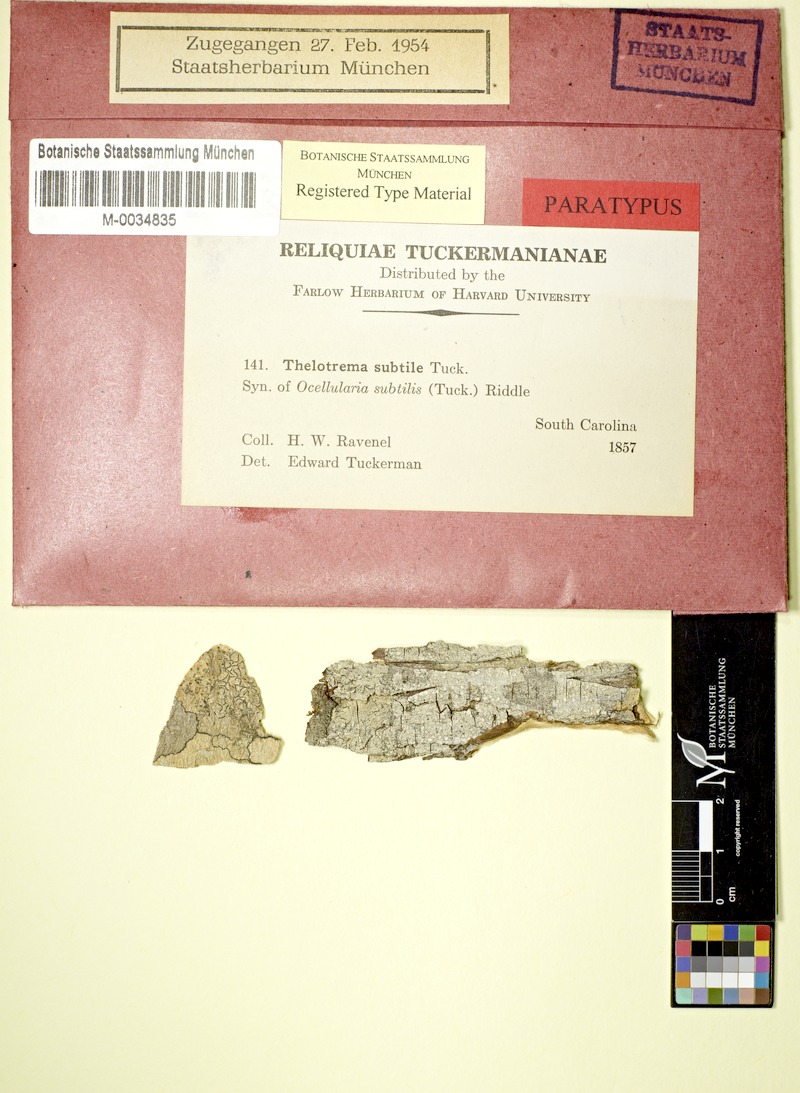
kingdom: Fungi
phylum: Ascomycota
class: Lecanoromycetes
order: Ostropales
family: Graphidaceae
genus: Thelotrema
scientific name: Thelotrema subtile
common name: Delicate barnacles lichen
